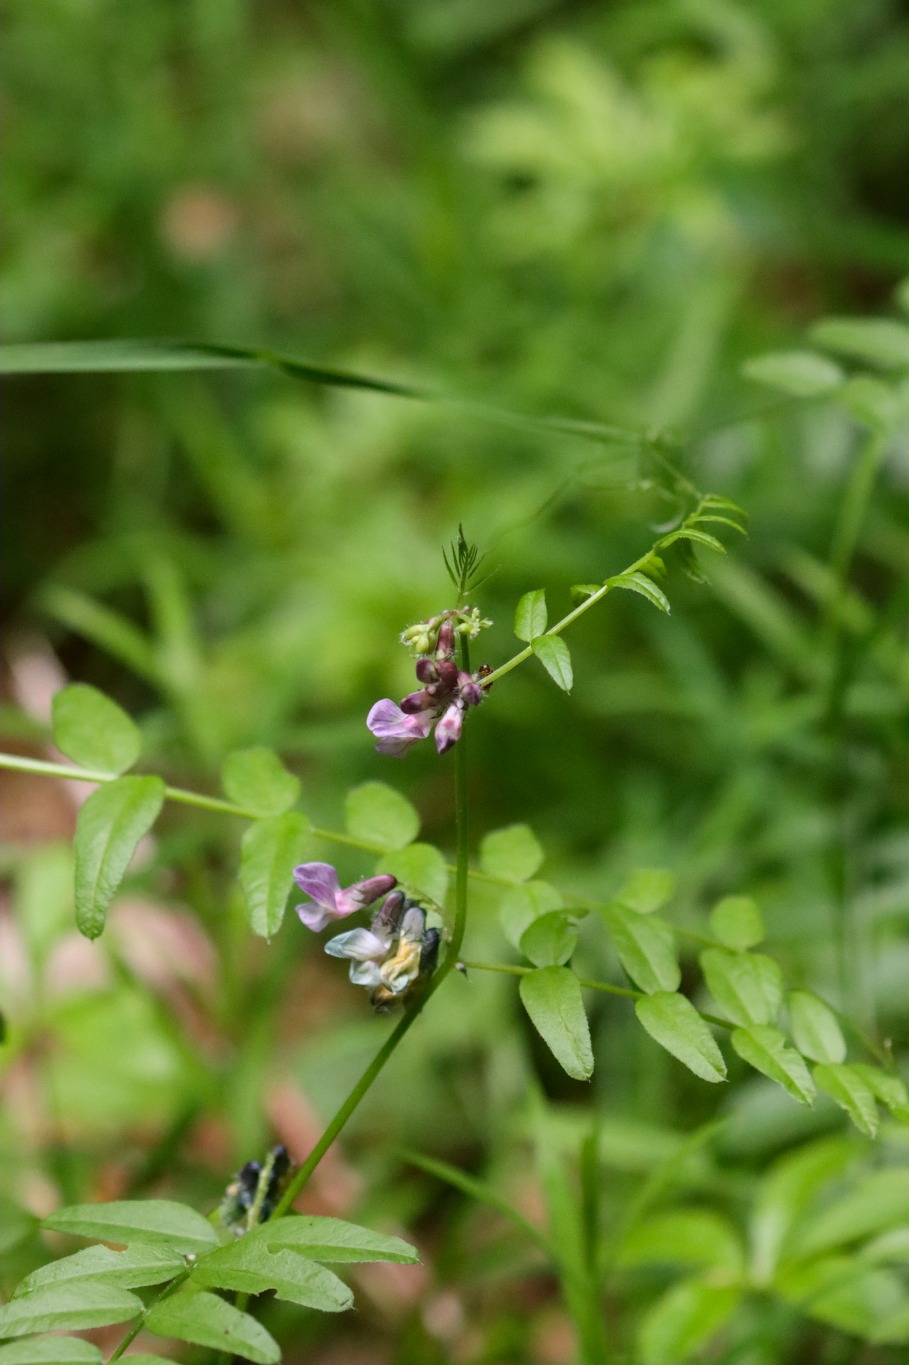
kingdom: Plantae
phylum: Tracheophyta
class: Magnoliopsida
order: Fabales
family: Fabaceae
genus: Vicia
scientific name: Vicia sepium
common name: Gærde-vikke
